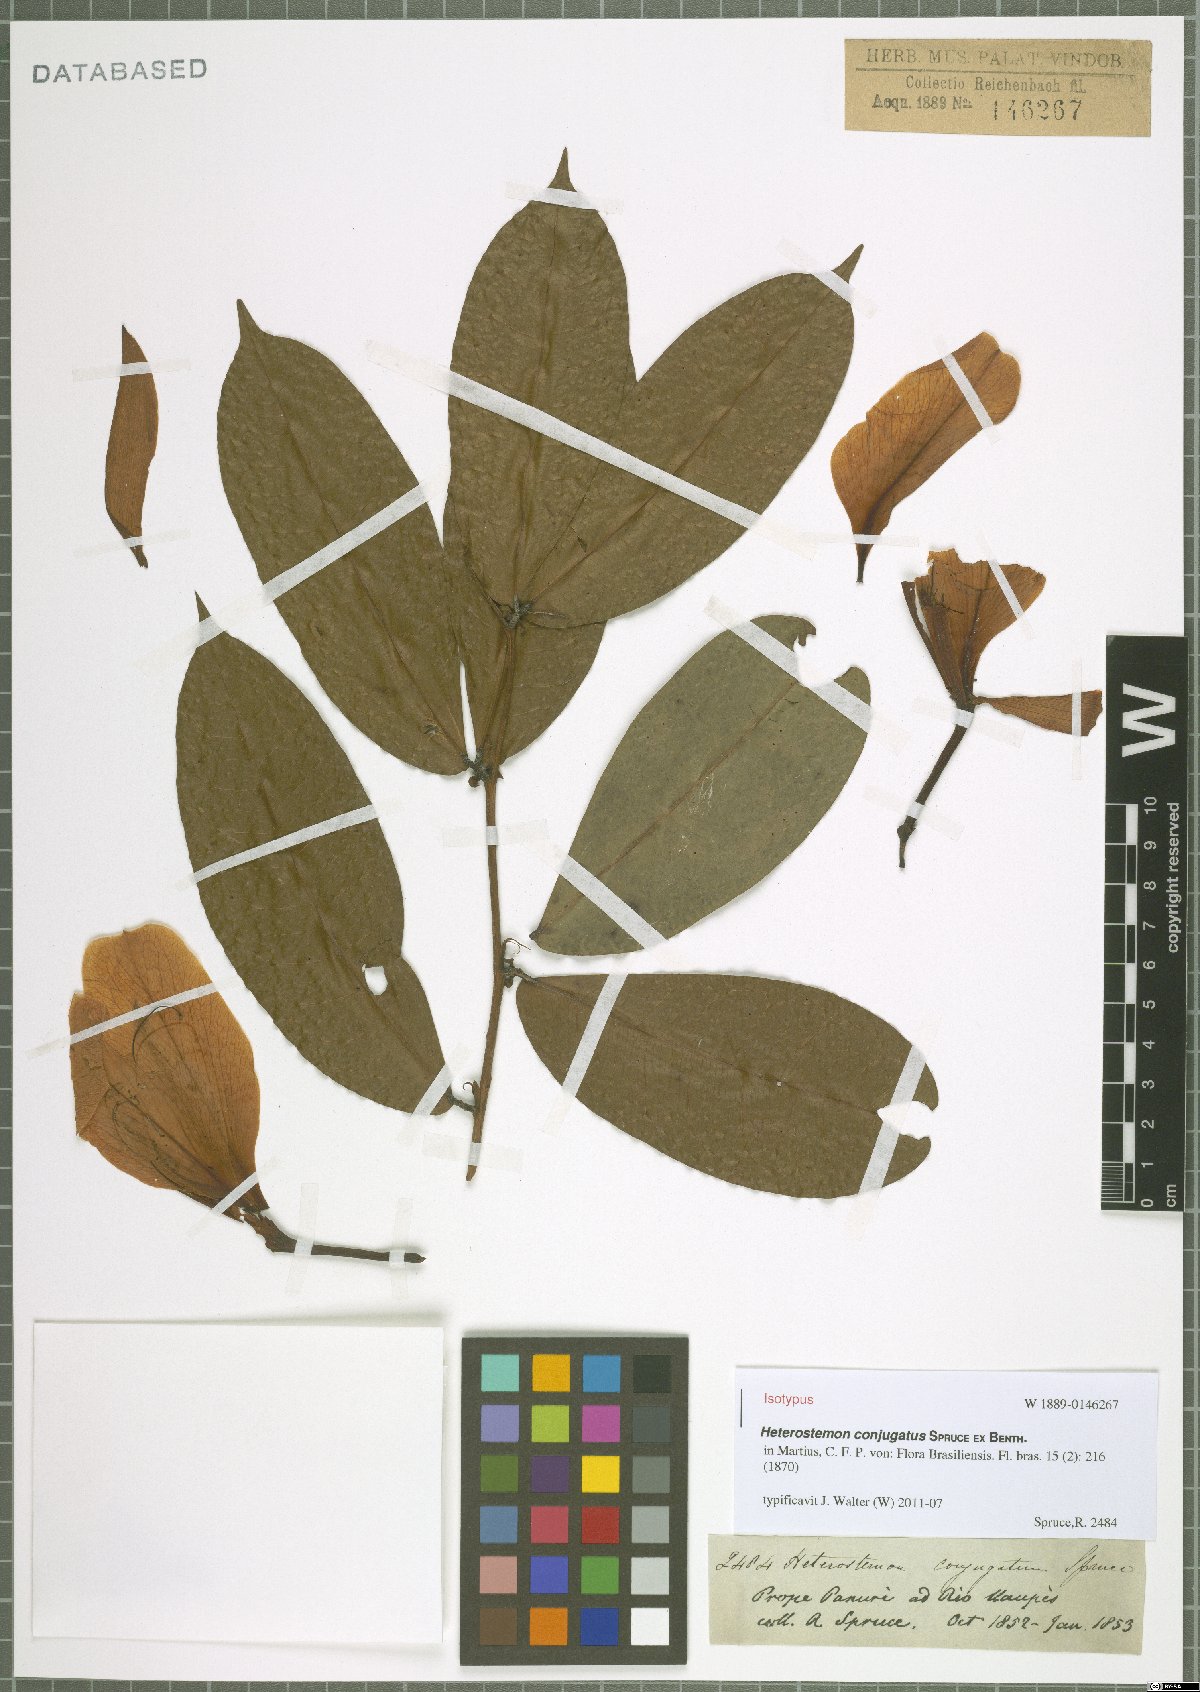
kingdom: Plantae
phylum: Tracheophyta
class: Magnoliopsida
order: Fabales
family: Fabaceae
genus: Heterostemon
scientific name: Heterostemon conjugatus
